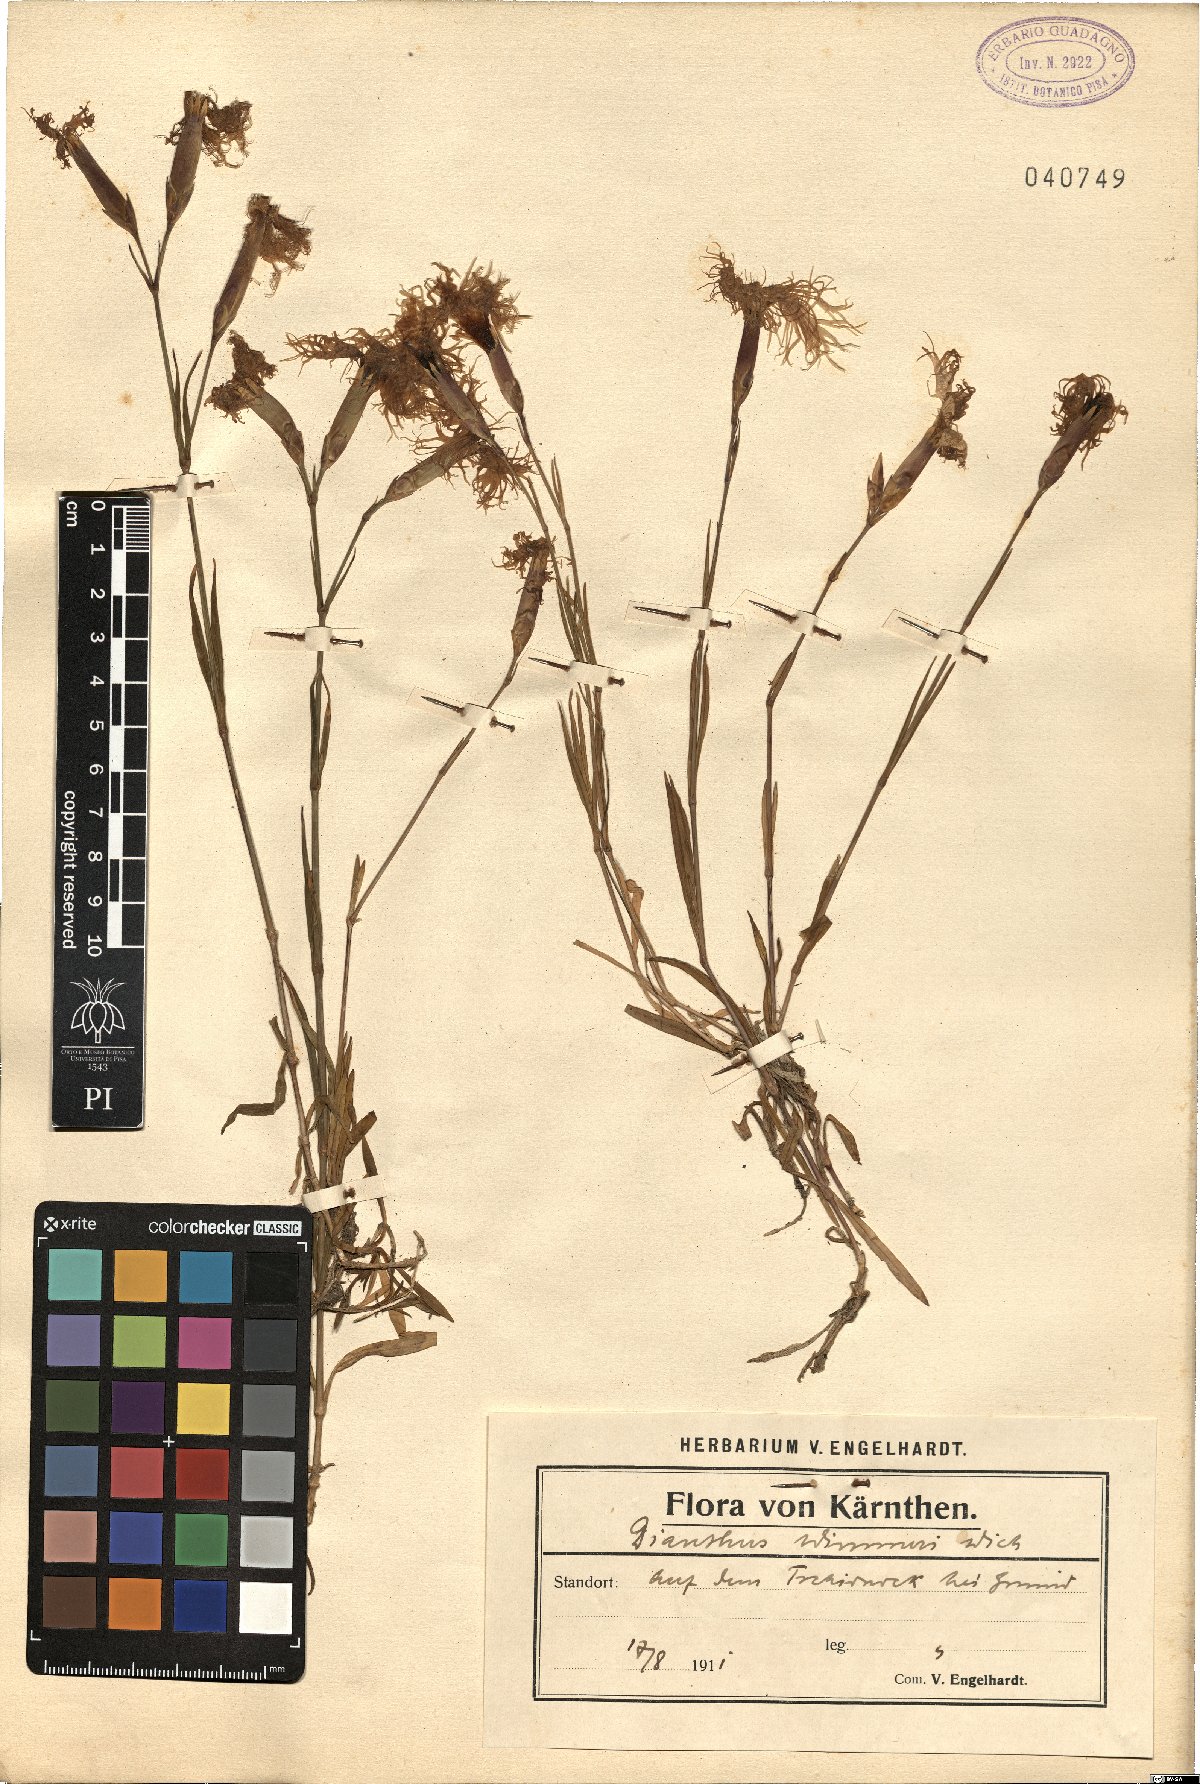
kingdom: Plantae
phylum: Tracheophyta
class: Magnoliopsida
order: Caryophyllales
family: Caryophyllaceae
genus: Dianthus
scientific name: Dianthus superbus
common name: Fringed pink
